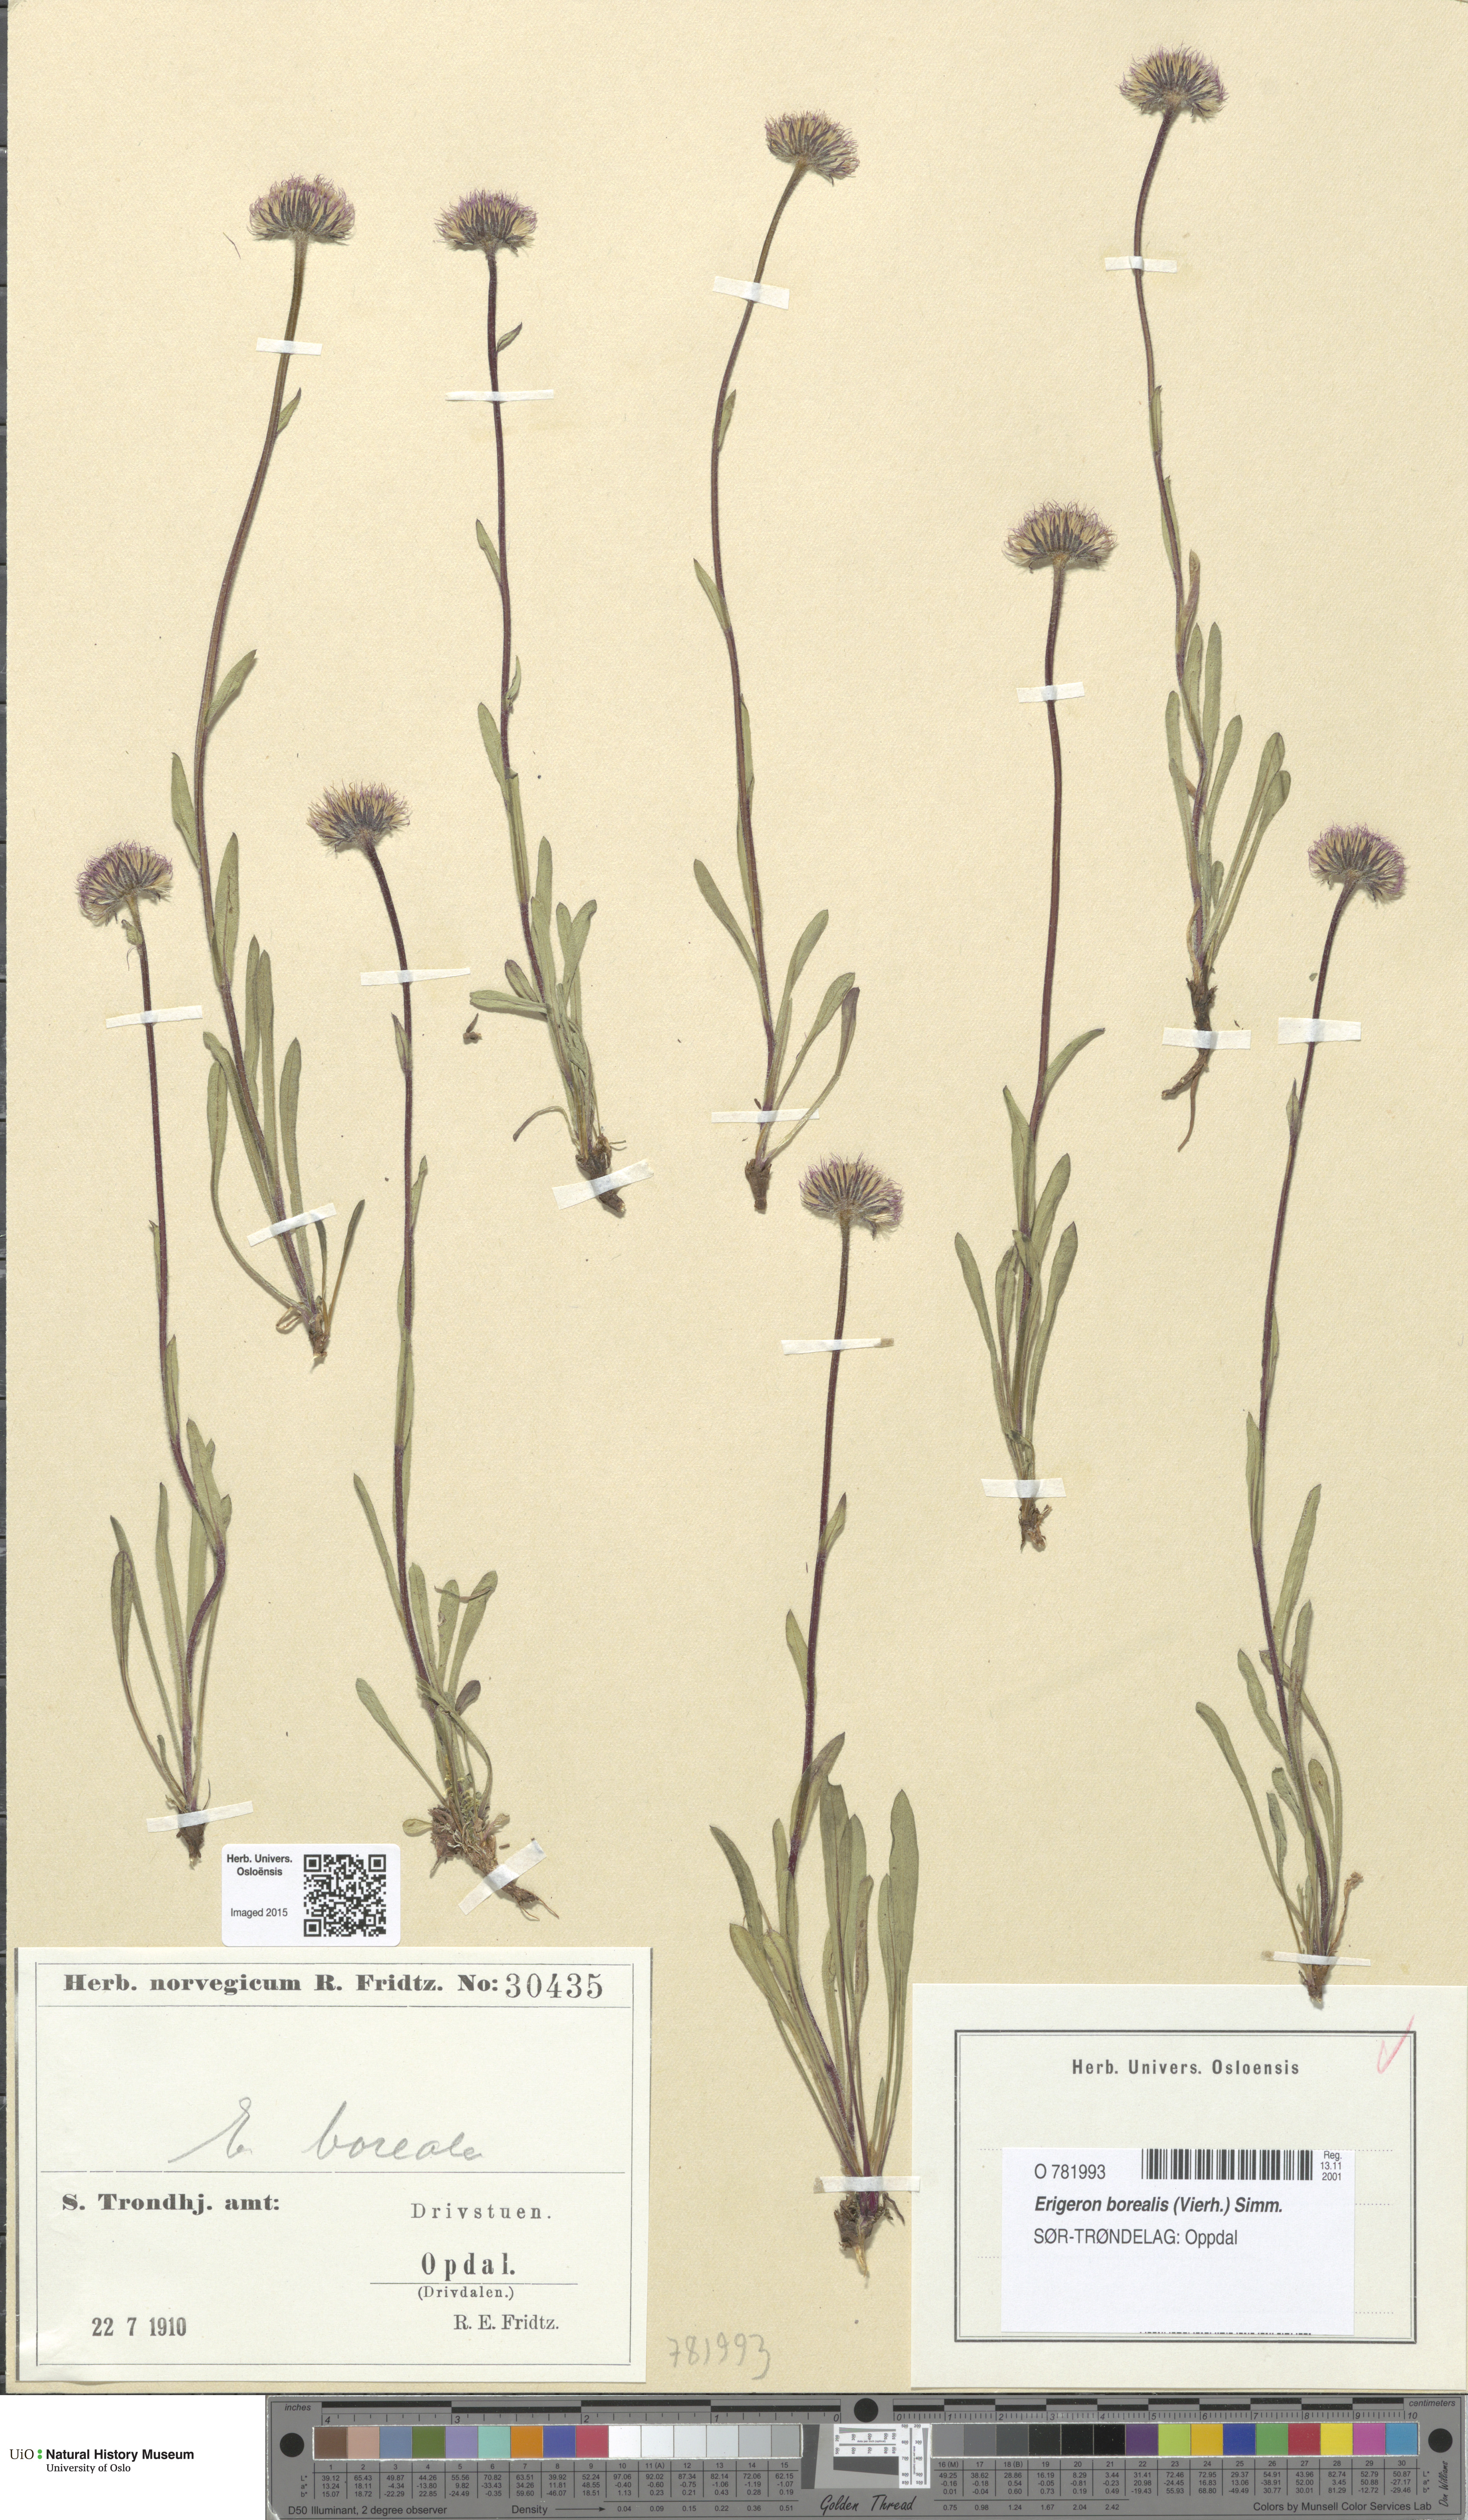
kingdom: Plantae
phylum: Tracheophyta
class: Magnoliopsida
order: Asterales
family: Asteraceae
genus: Erigeron
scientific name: Erigeron borealis
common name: Alpine fleabane
